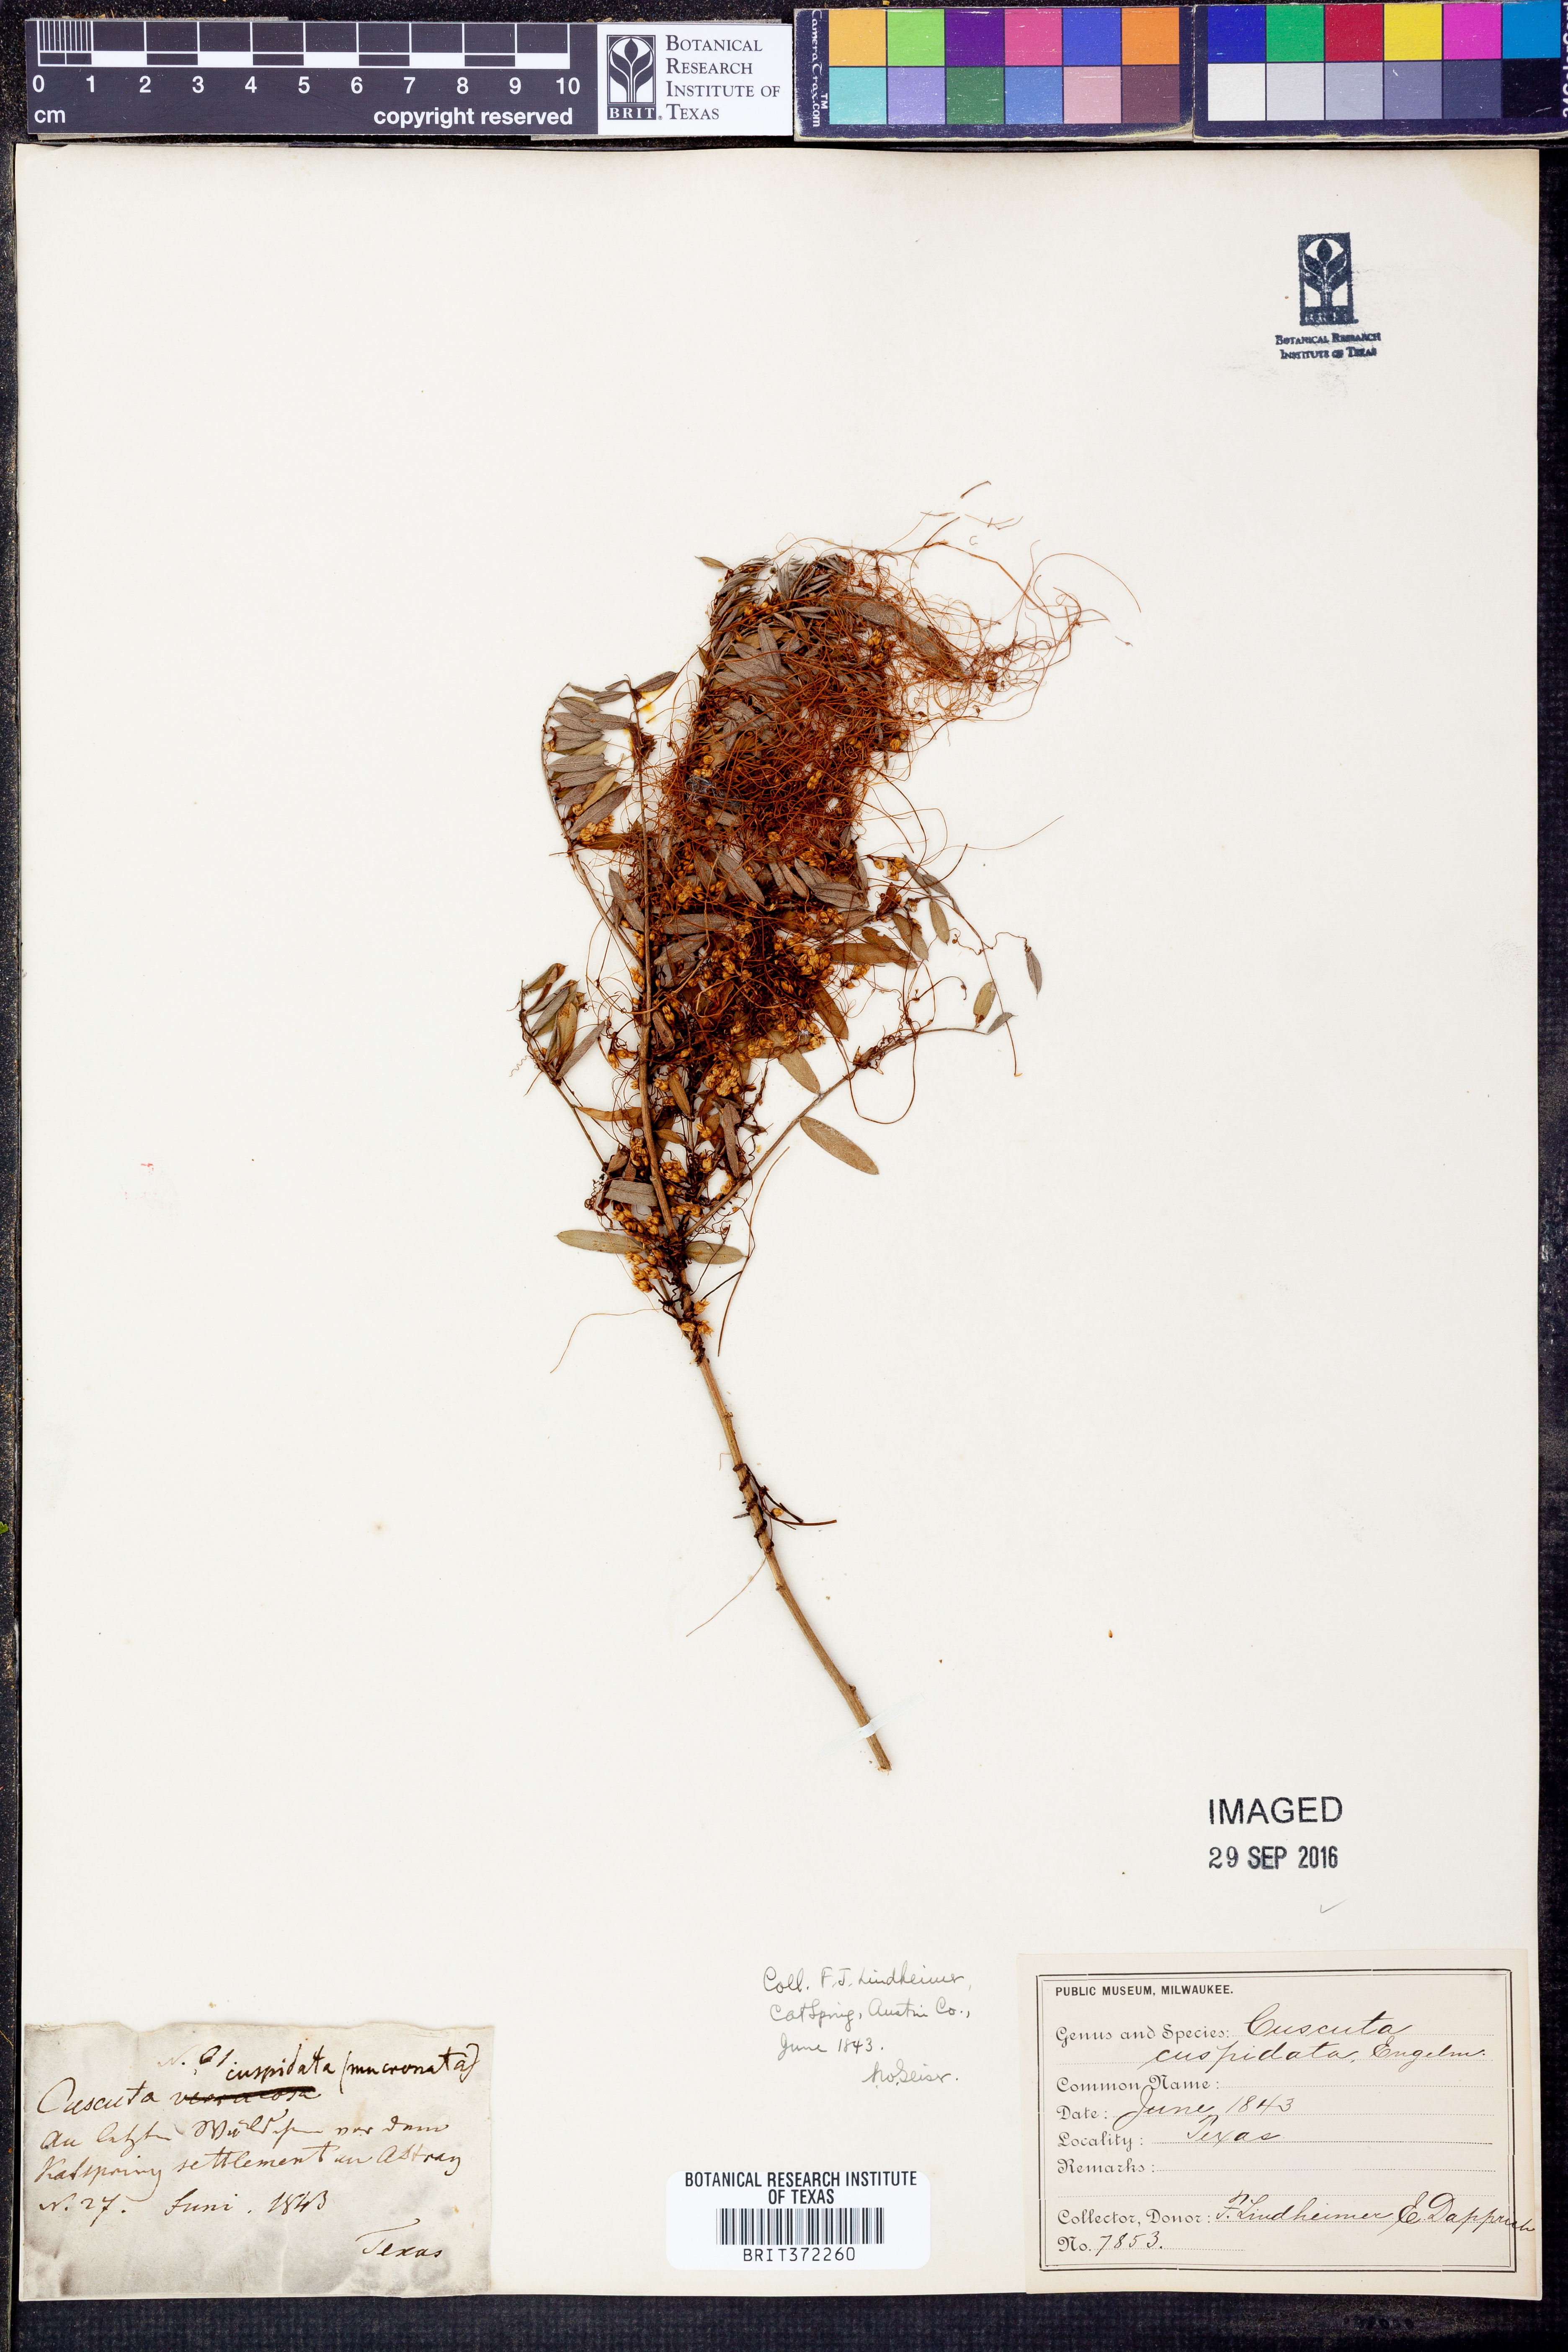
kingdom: Plantae
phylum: Tracheophyta
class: Magnoliopsida
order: Solanales
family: Convolvulaceae
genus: Cuscuta
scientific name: Cuscuta cuspidata
